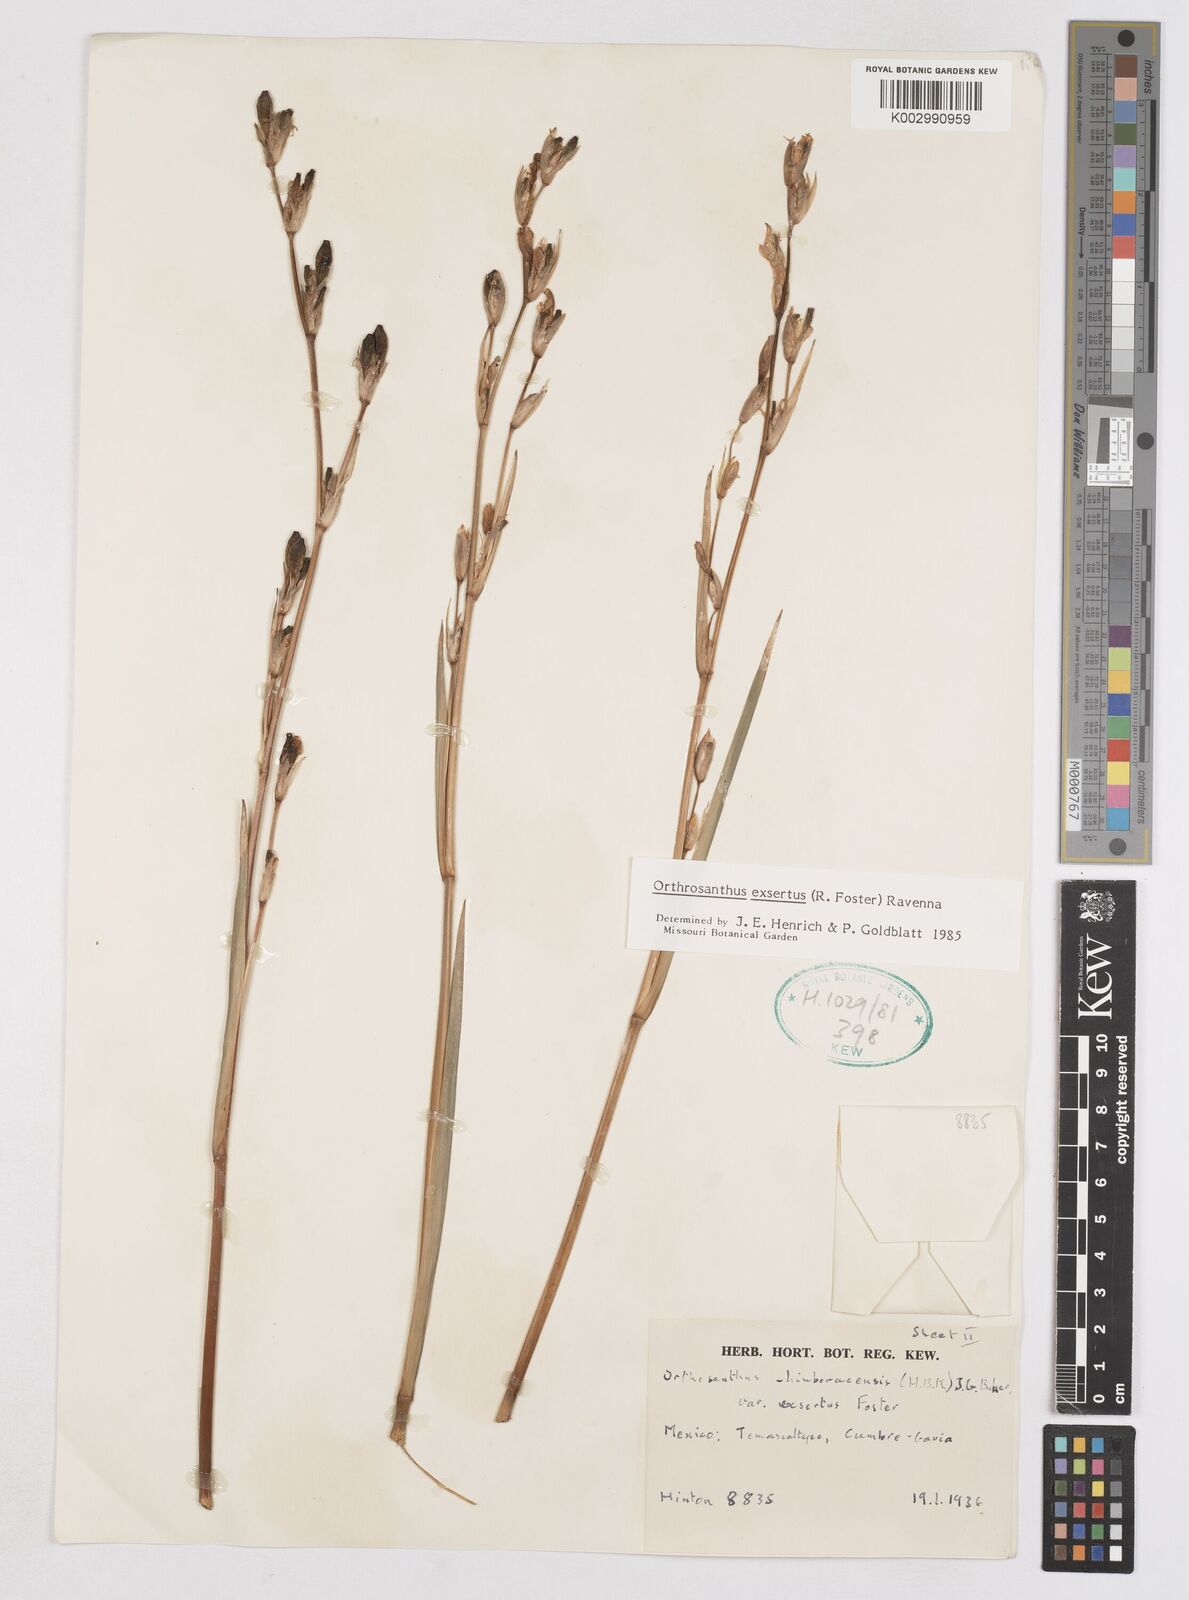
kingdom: Plantae
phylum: Tracheophyta
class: Liliopsida
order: Asparagales
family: Iridaceae
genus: Orthrosanthus
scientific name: Orthrosanthus exsertus
